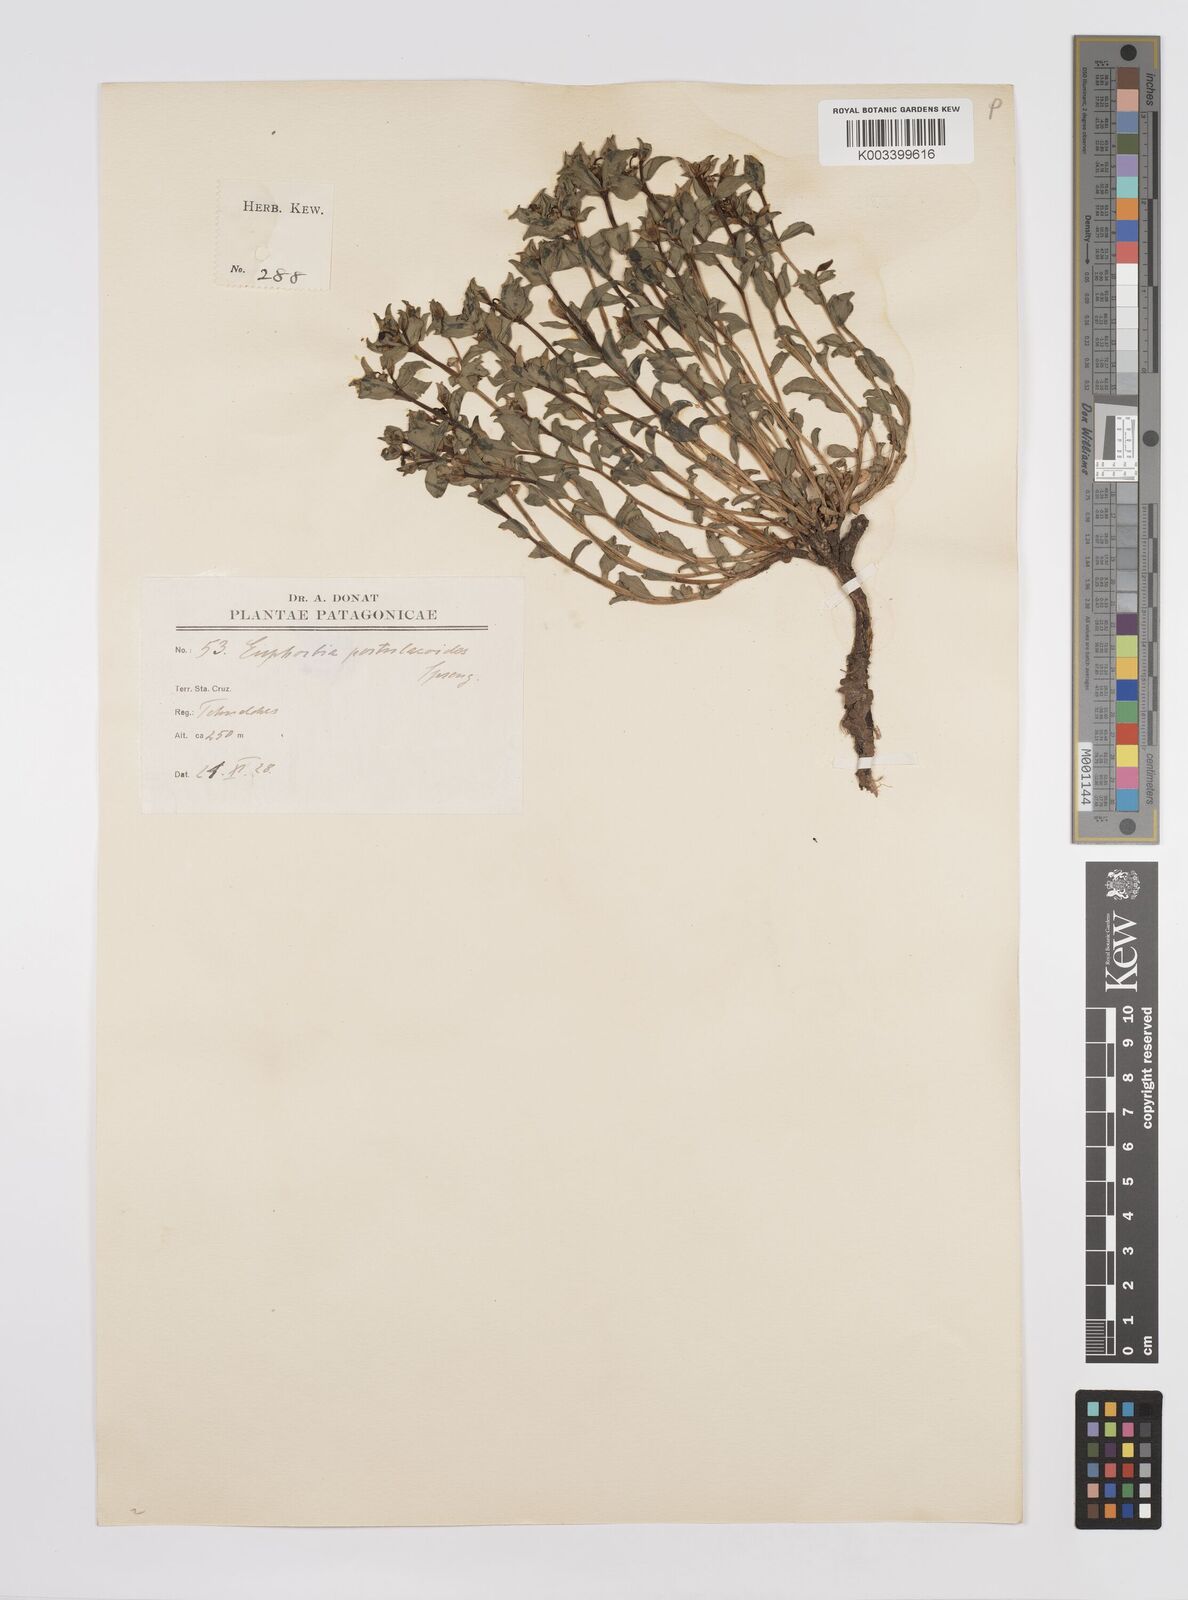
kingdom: Plantae
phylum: Tracheophyta
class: Magnoliopsida
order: Malpighiales
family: Euphorbiaceae
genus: Euphorbia
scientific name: Euphorbia portulacoides
